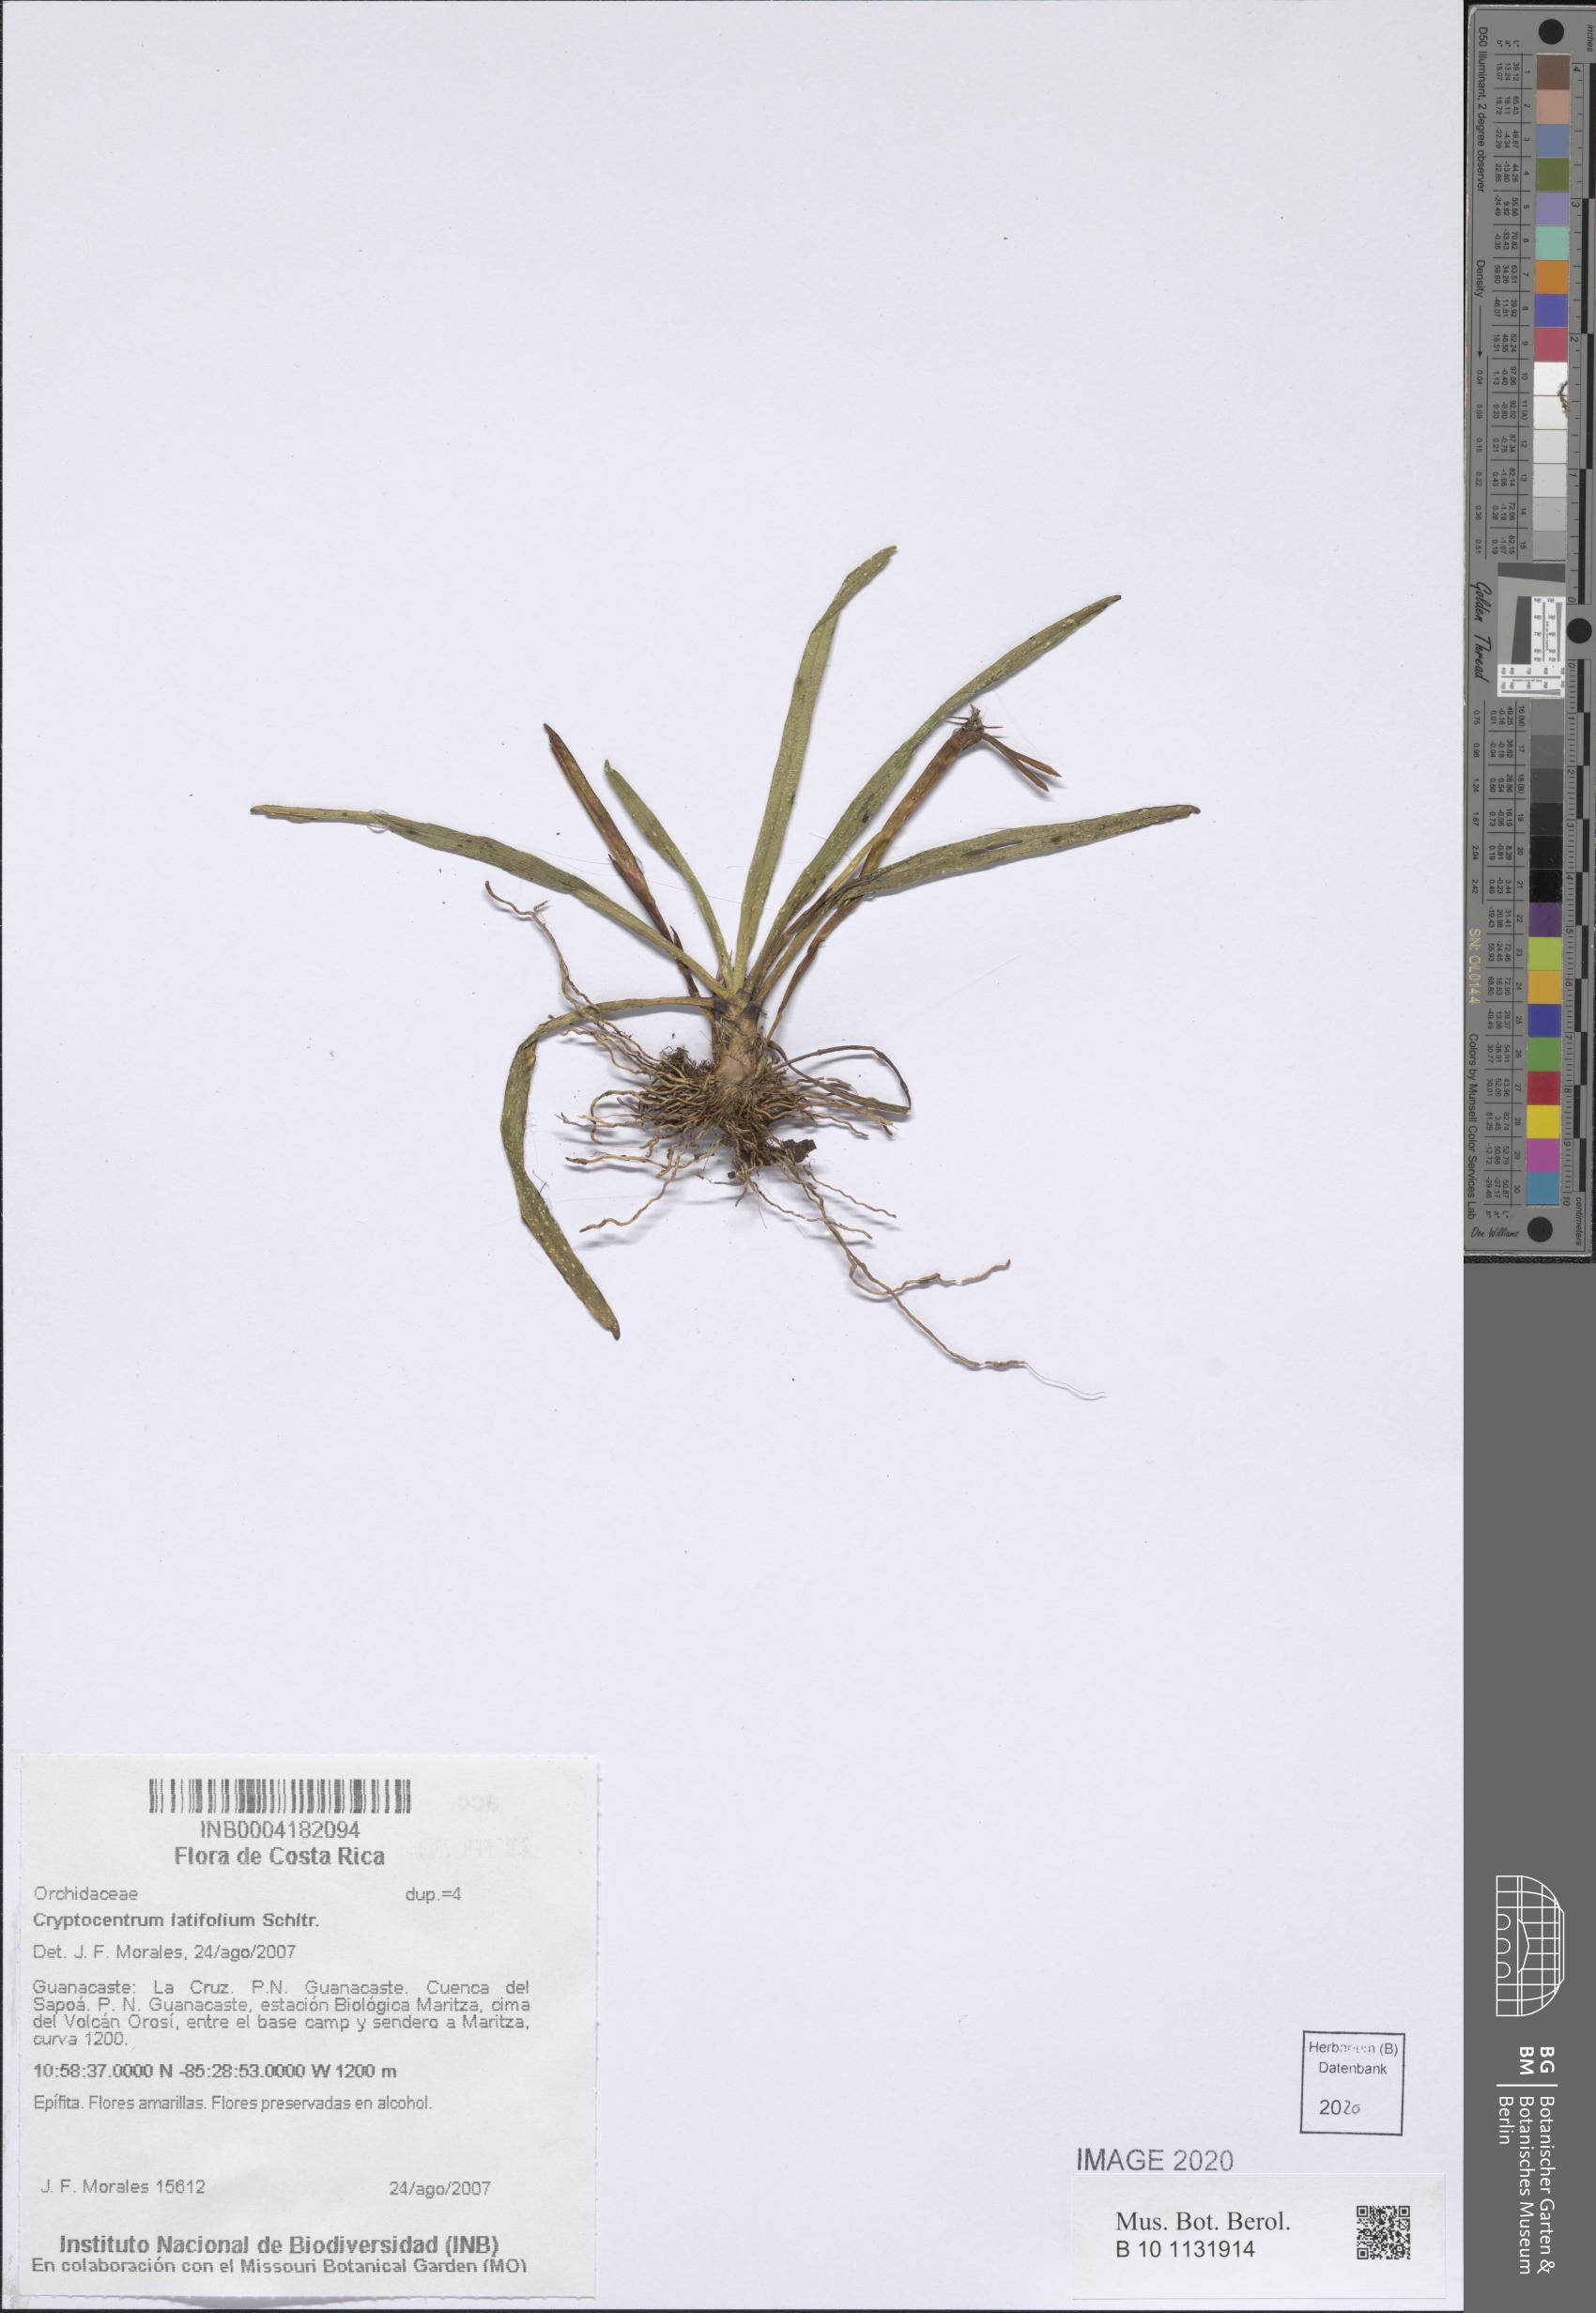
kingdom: Plantae
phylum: Tracheophyta
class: Liliopsida
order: Asparagales
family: Orchidaceae
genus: Maxillaria
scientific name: Maxillaria amplifoliata
